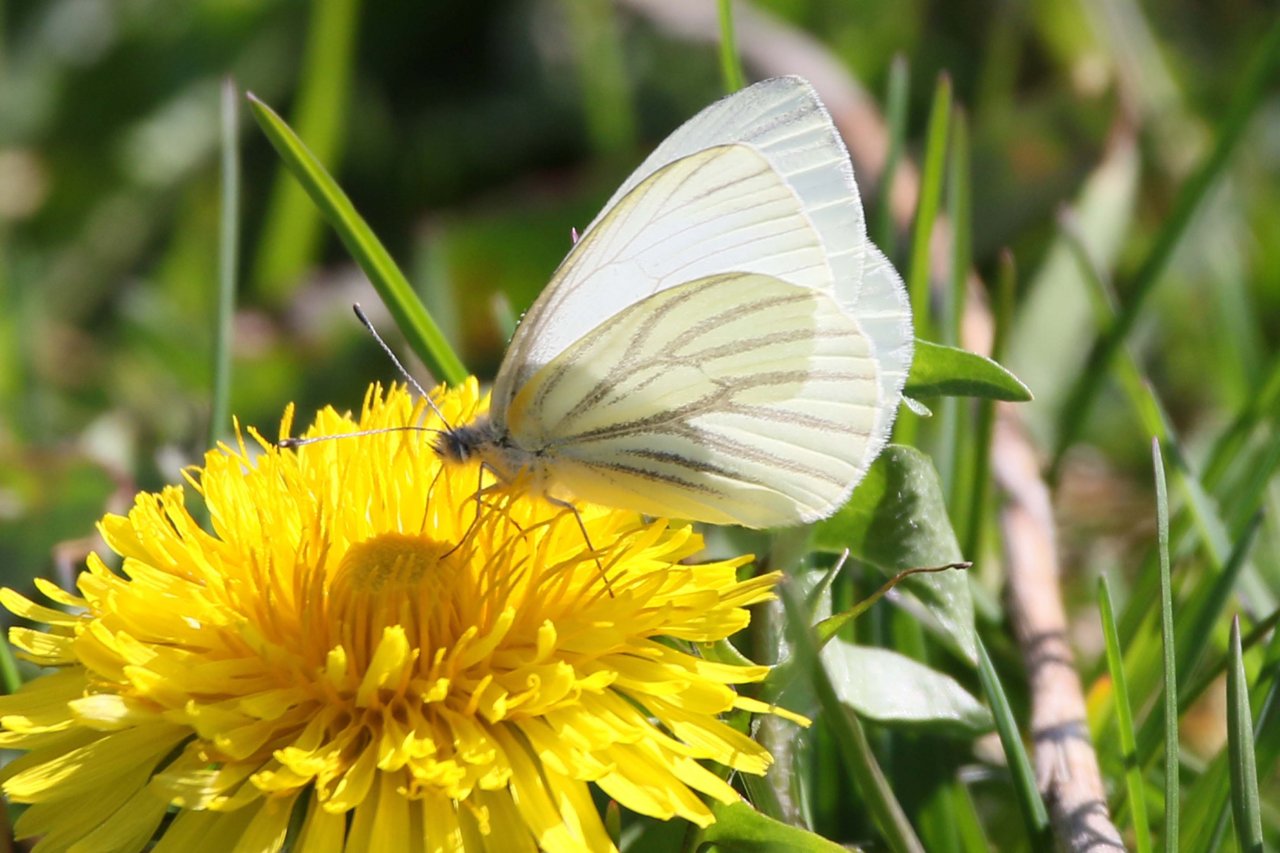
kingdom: Animalia
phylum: Arthropoda
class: Insecta
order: Lepidoptera
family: Pieridae
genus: Pieris
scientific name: Pieris oleracea
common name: Mustard White
